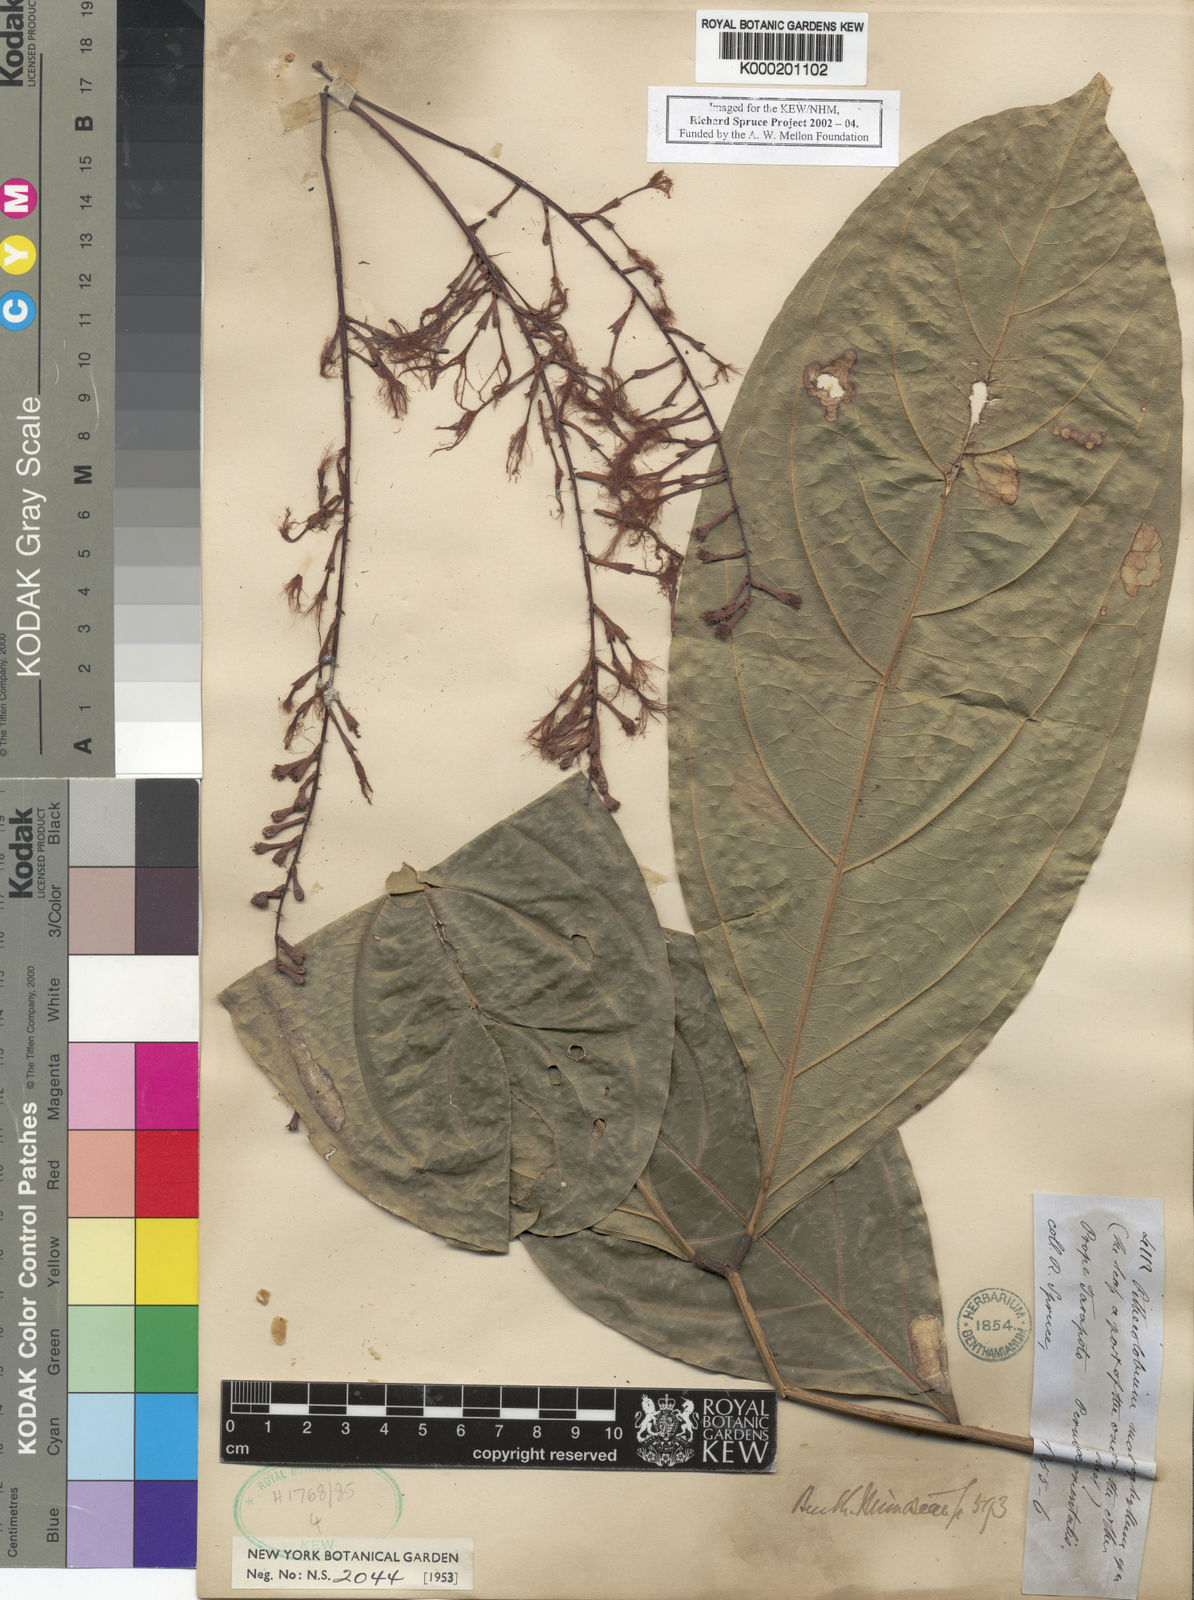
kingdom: Plantae
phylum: Tracheophyta
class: Magnoliopsida
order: Fabales
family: Fabaceae
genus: Zygia
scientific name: Zygia coccinea
